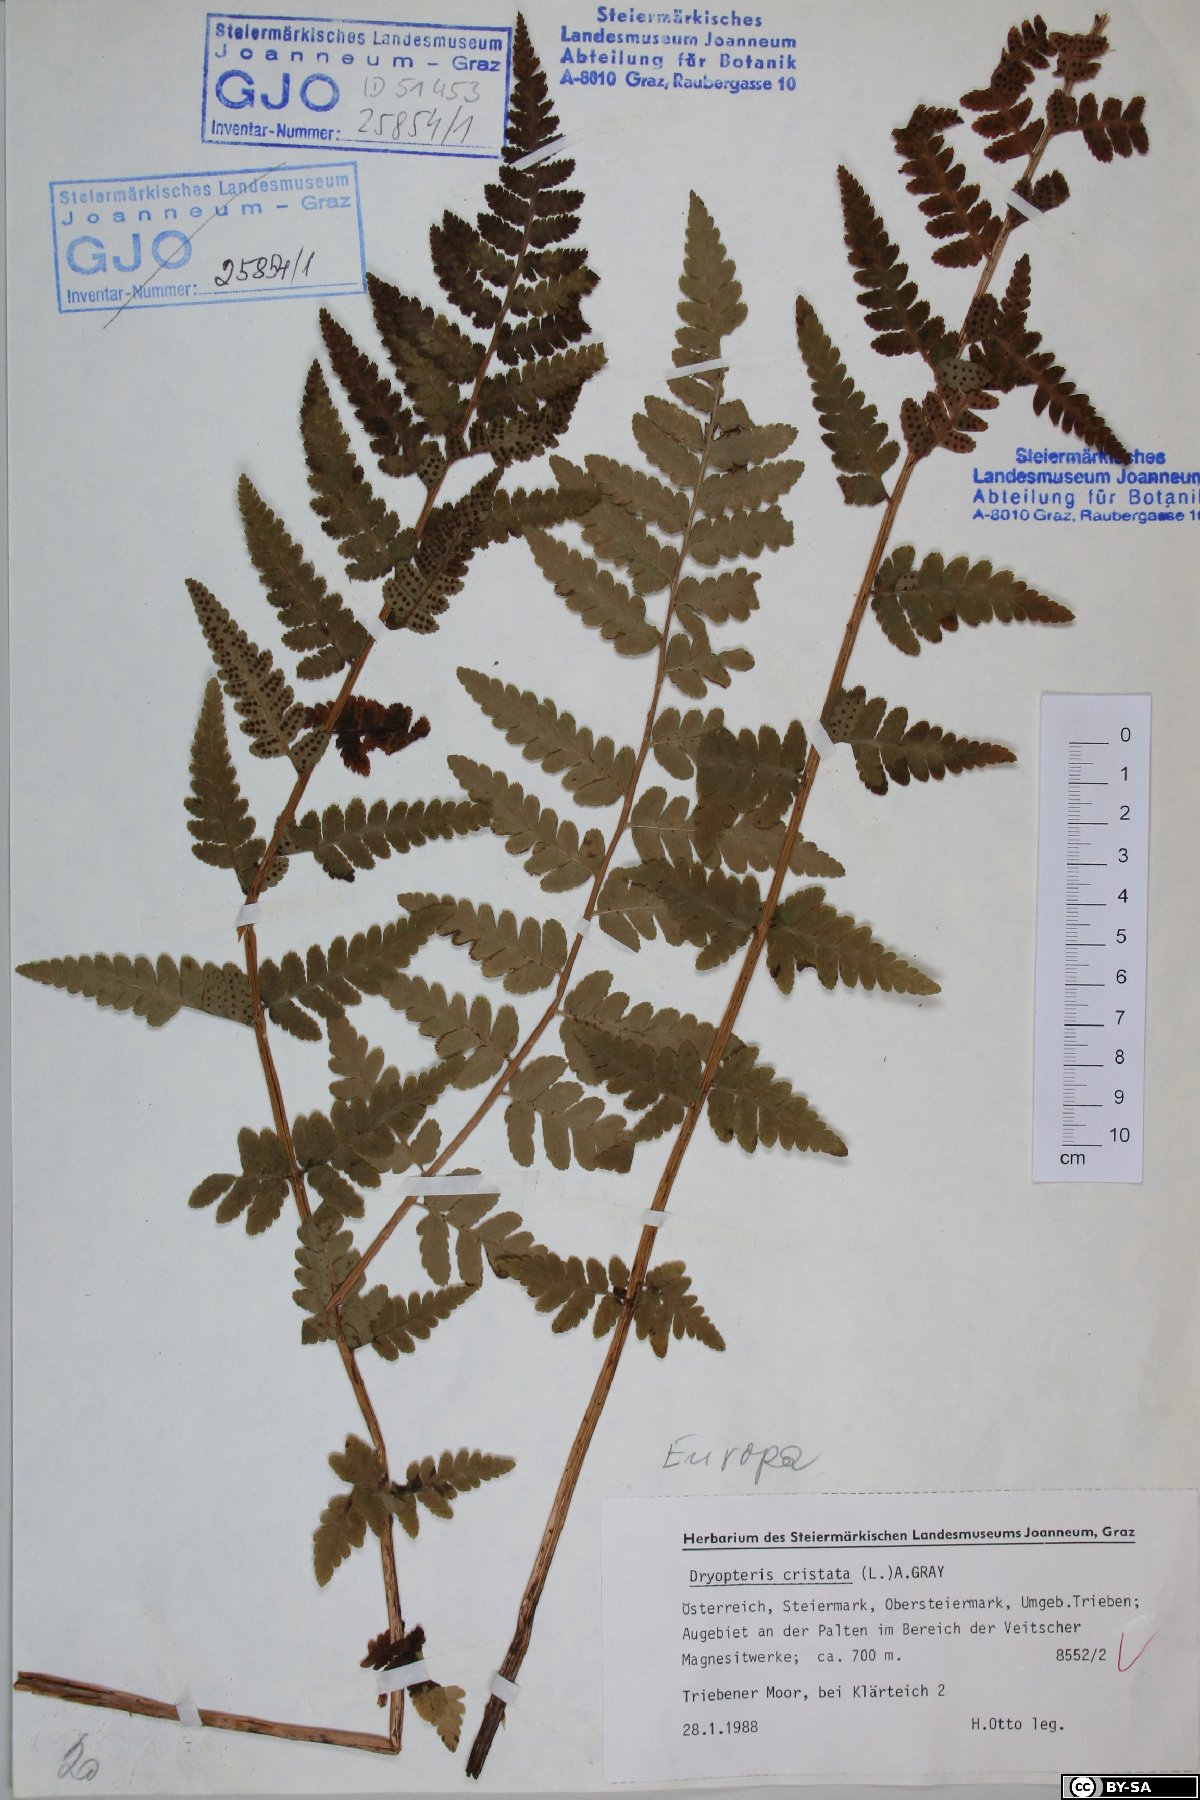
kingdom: Plantae
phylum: Tracheophyta
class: Polypodiopsida
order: Polypodiales
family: Dryopteridaceae
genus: Dryopteris
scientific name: Dryopteris cristata
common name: Crested wood fern
